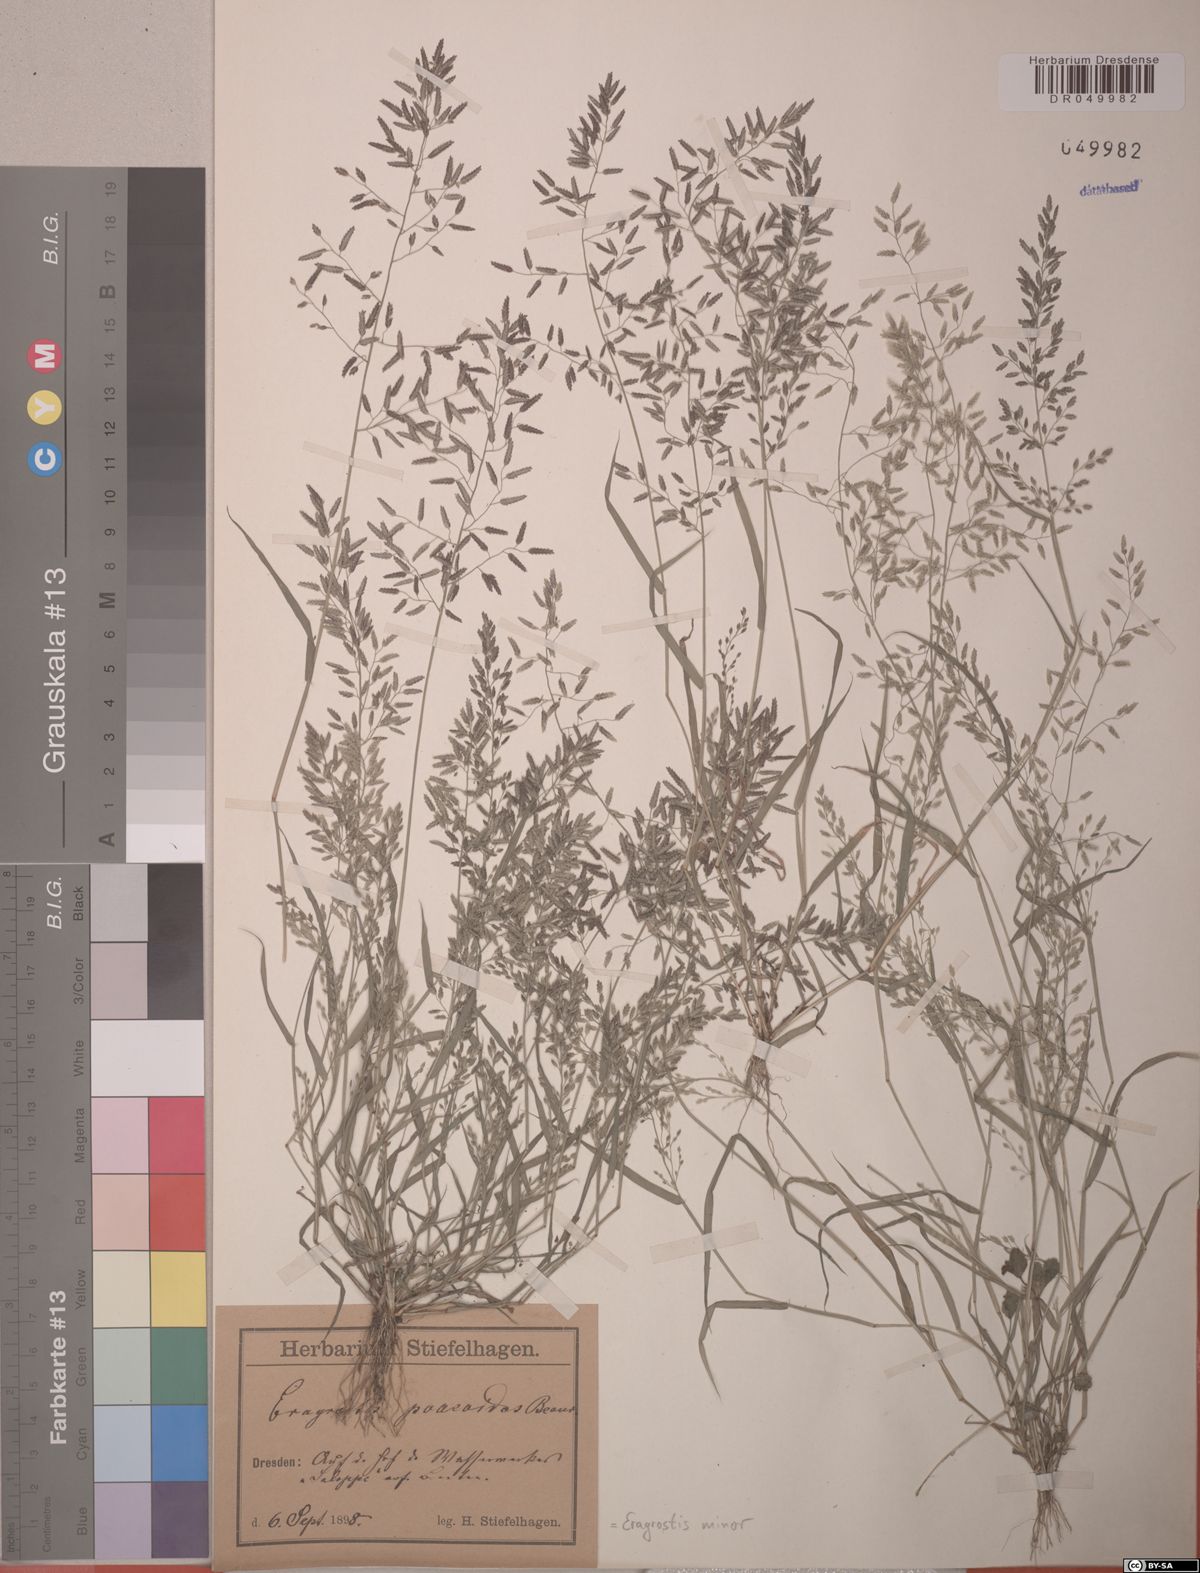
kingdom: Plantae
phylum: Tracheophyta
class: Liliopsida
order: Poales
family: Poaceae
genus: Eragrostis
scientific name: Eragrostis minor
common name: Small love-grass
